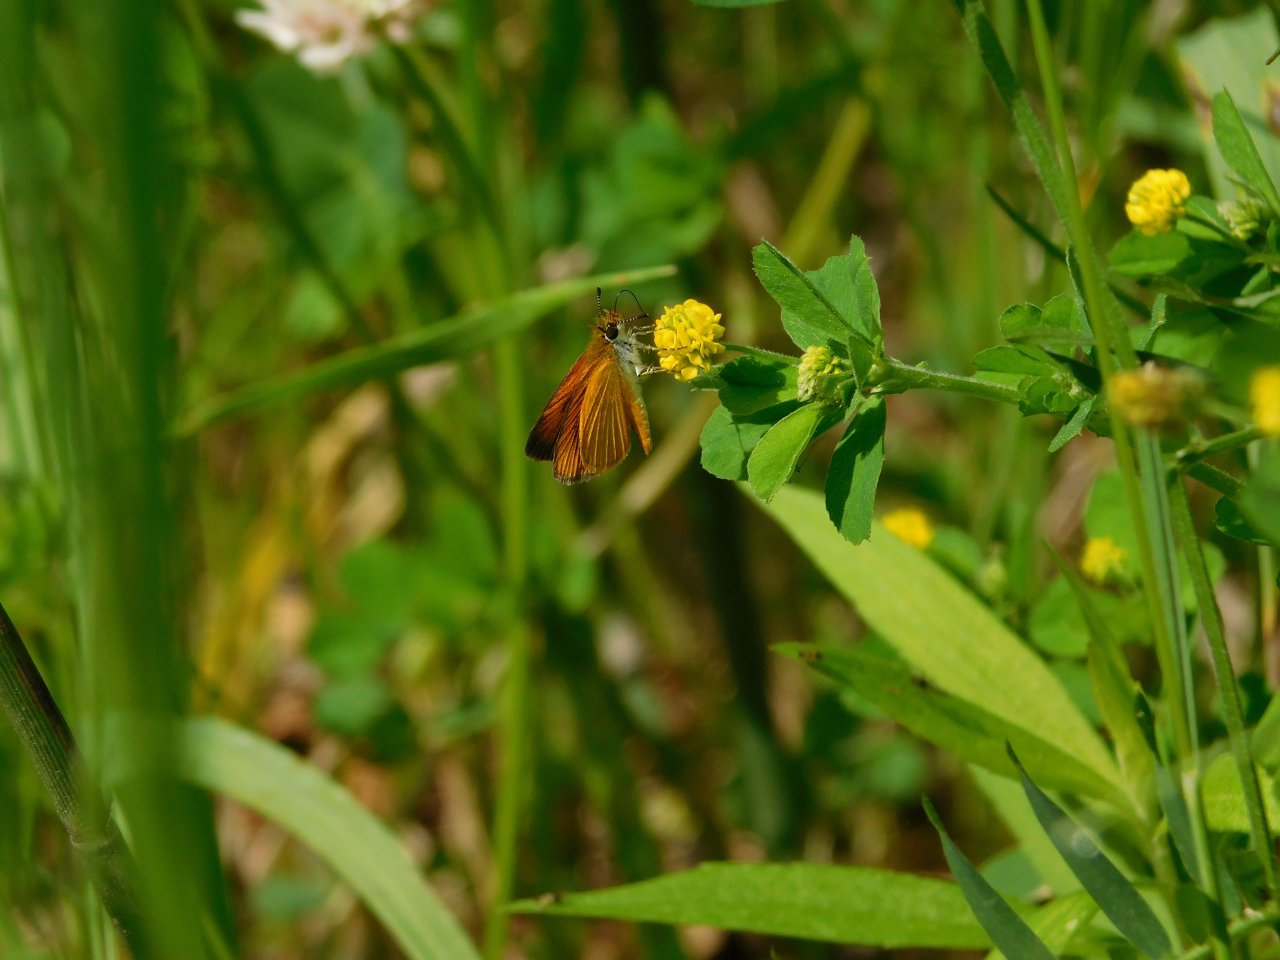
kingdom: Animalia
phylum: Arthropoda
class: Insecta
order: Lepidoptera
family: Hesperiidae
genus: Ancyloxypha
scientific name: Ancyloxypha numitor
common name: Least Skipper
